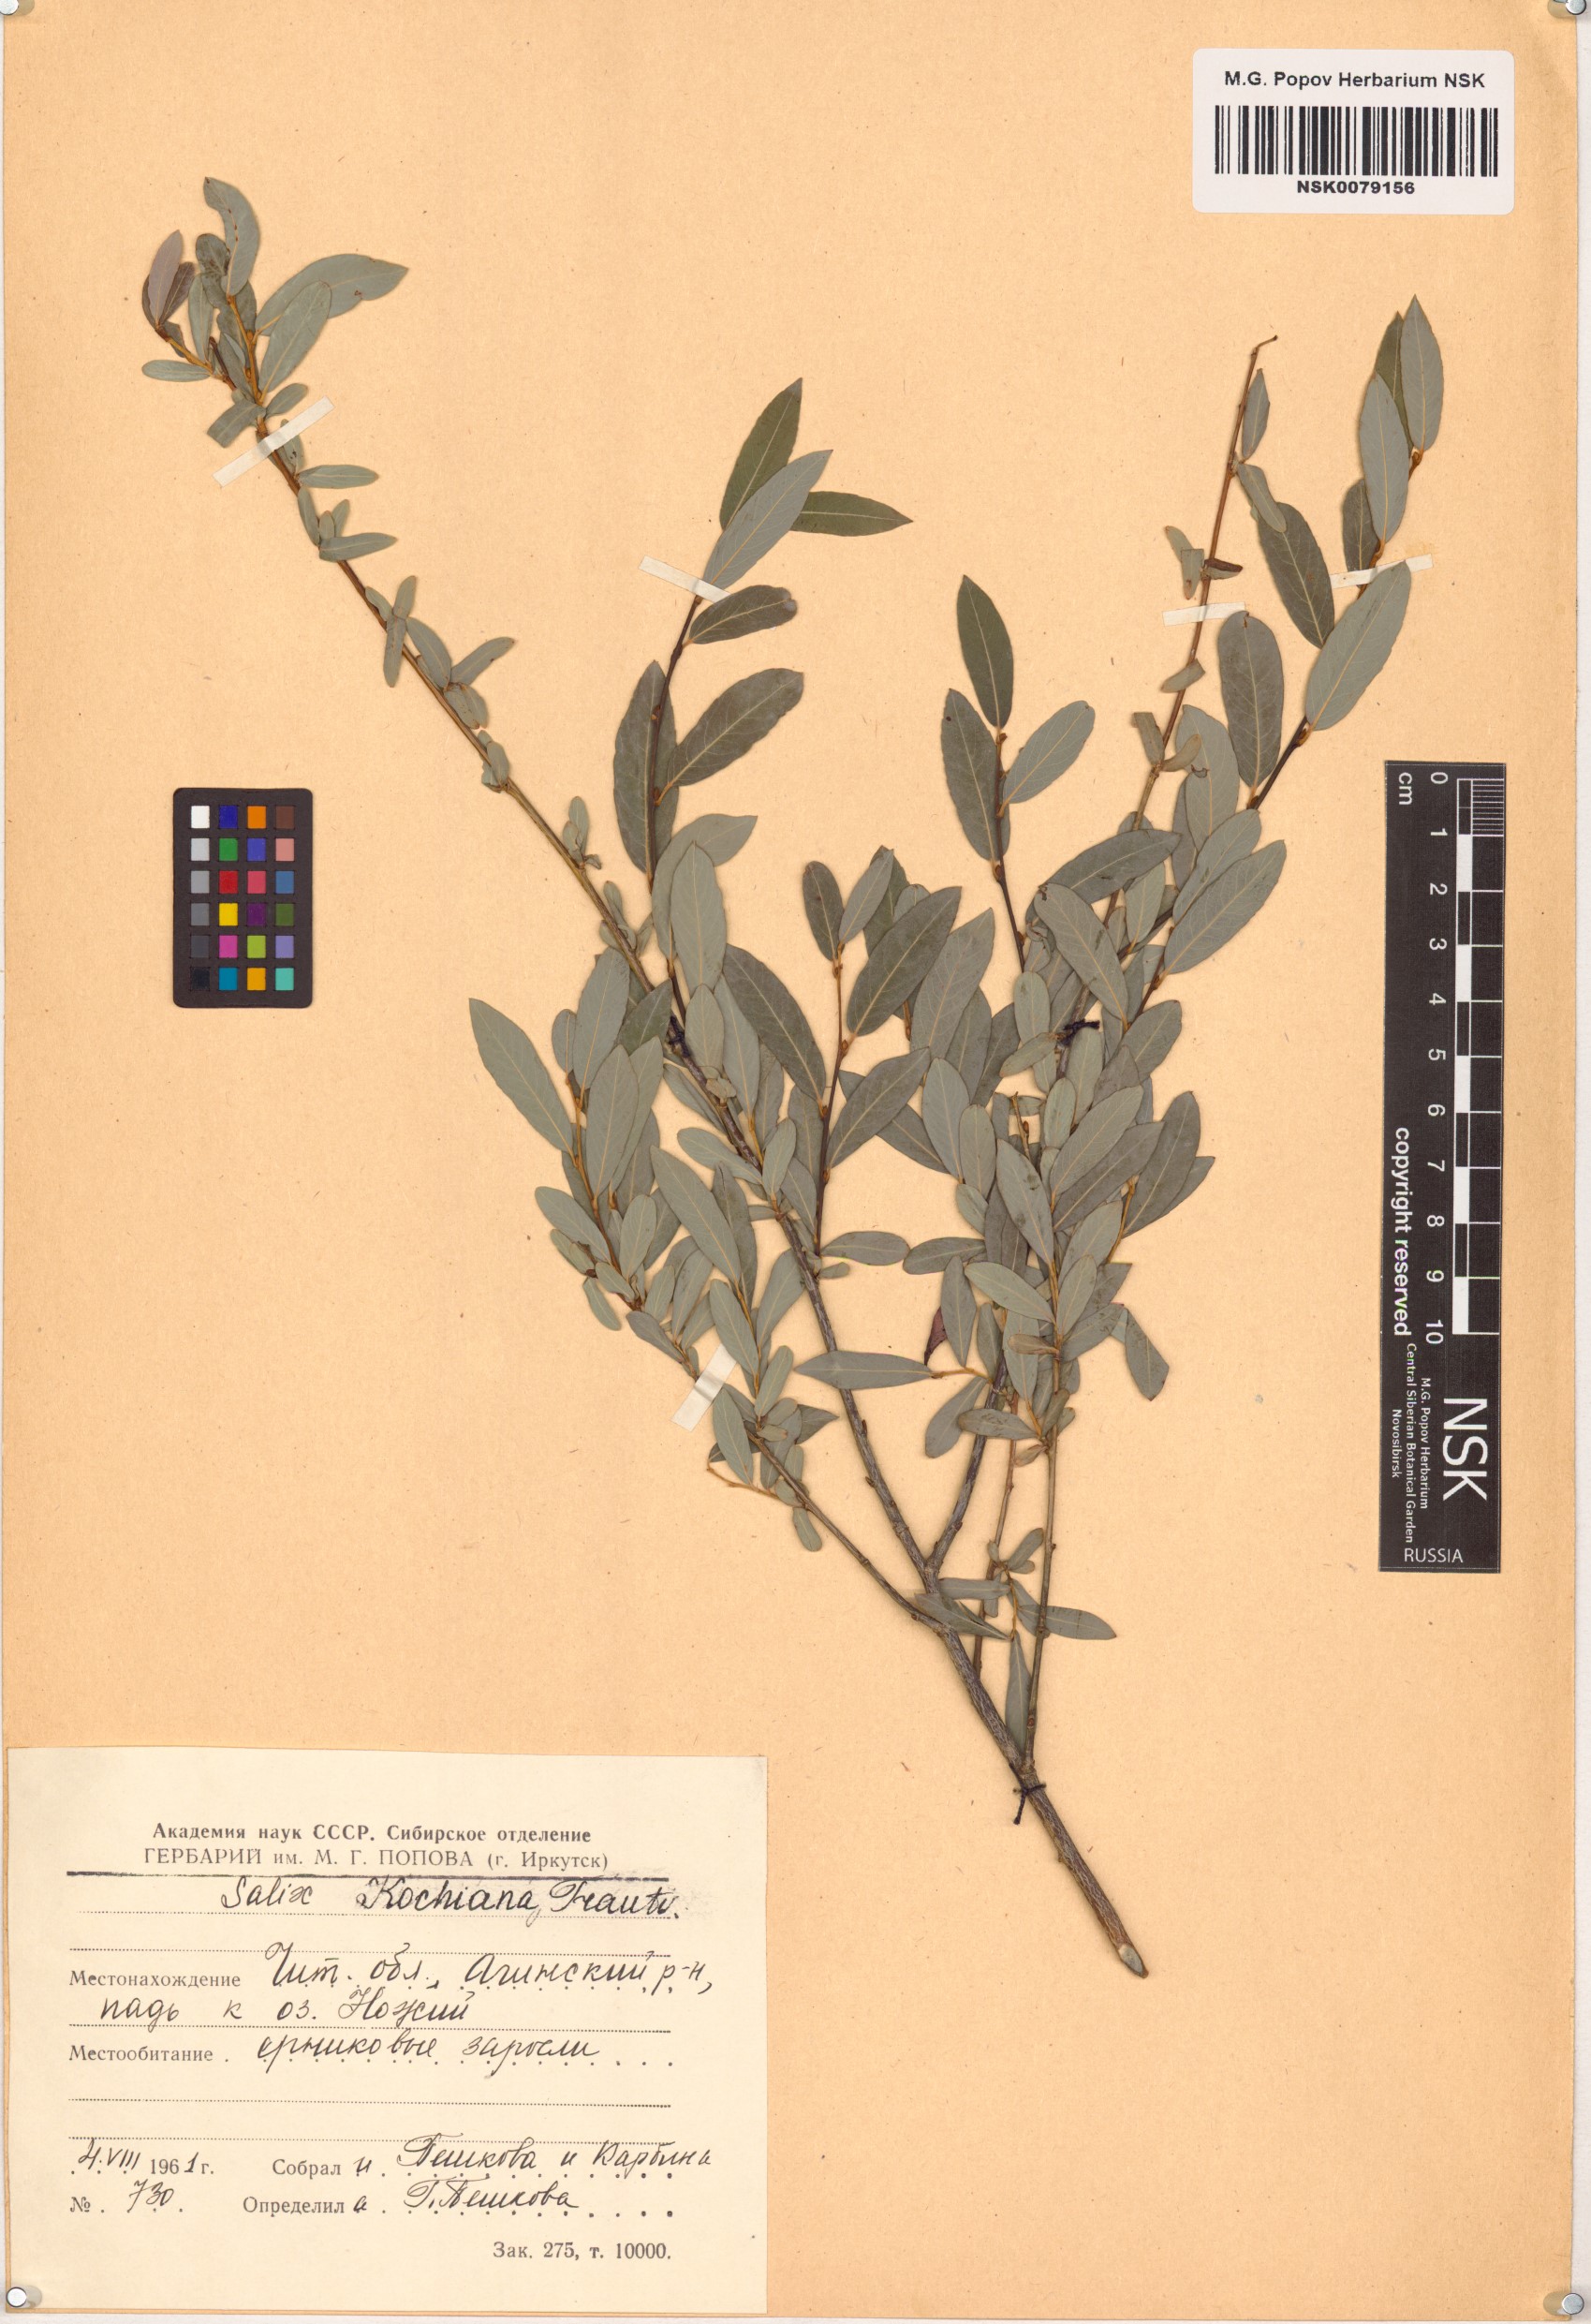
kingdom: Plantae
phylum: Tracheophyta
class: Magnoliopsida
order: Malpighiales
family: Salicaceae
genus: Salix
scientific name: Salix kochiana
